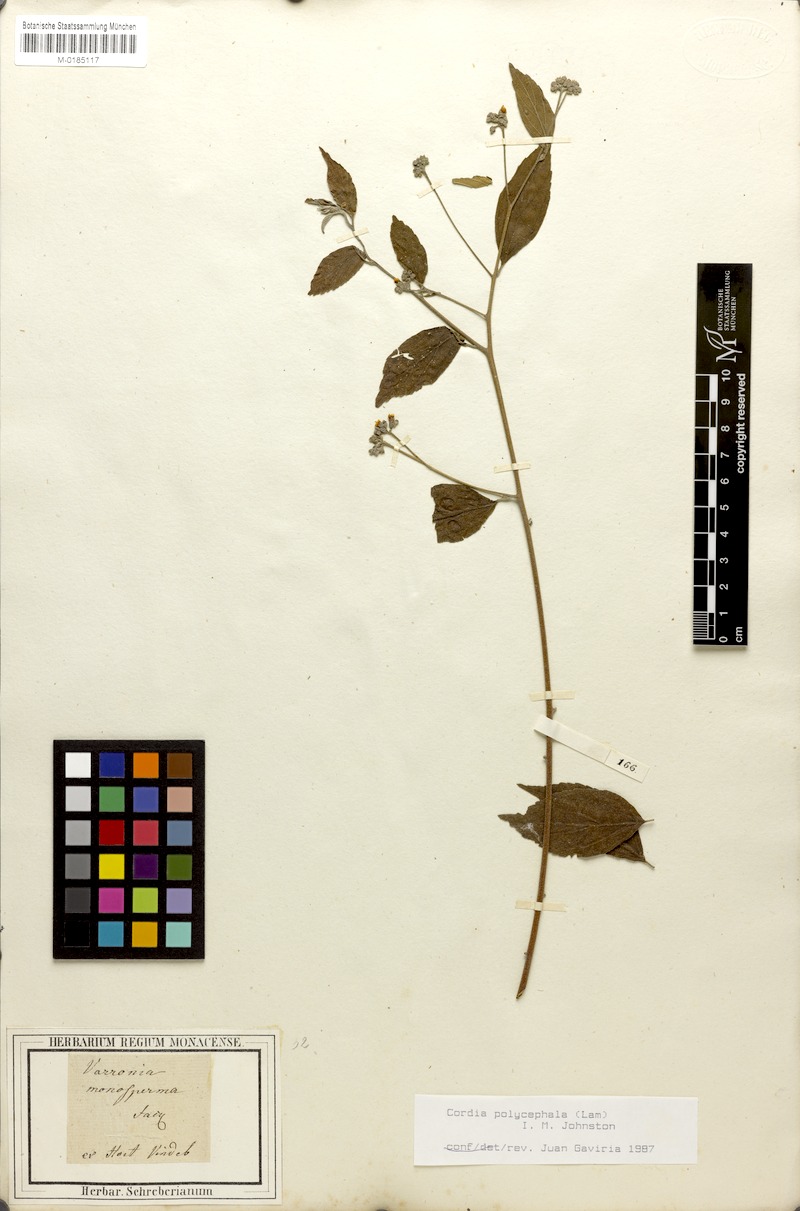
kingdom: Plantae
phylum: Tracheophyta
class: Magnoliopsida
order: Boraginales
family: Cordiaceae
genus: Varronia
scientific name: Varronia polycephala
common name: Black-sage
